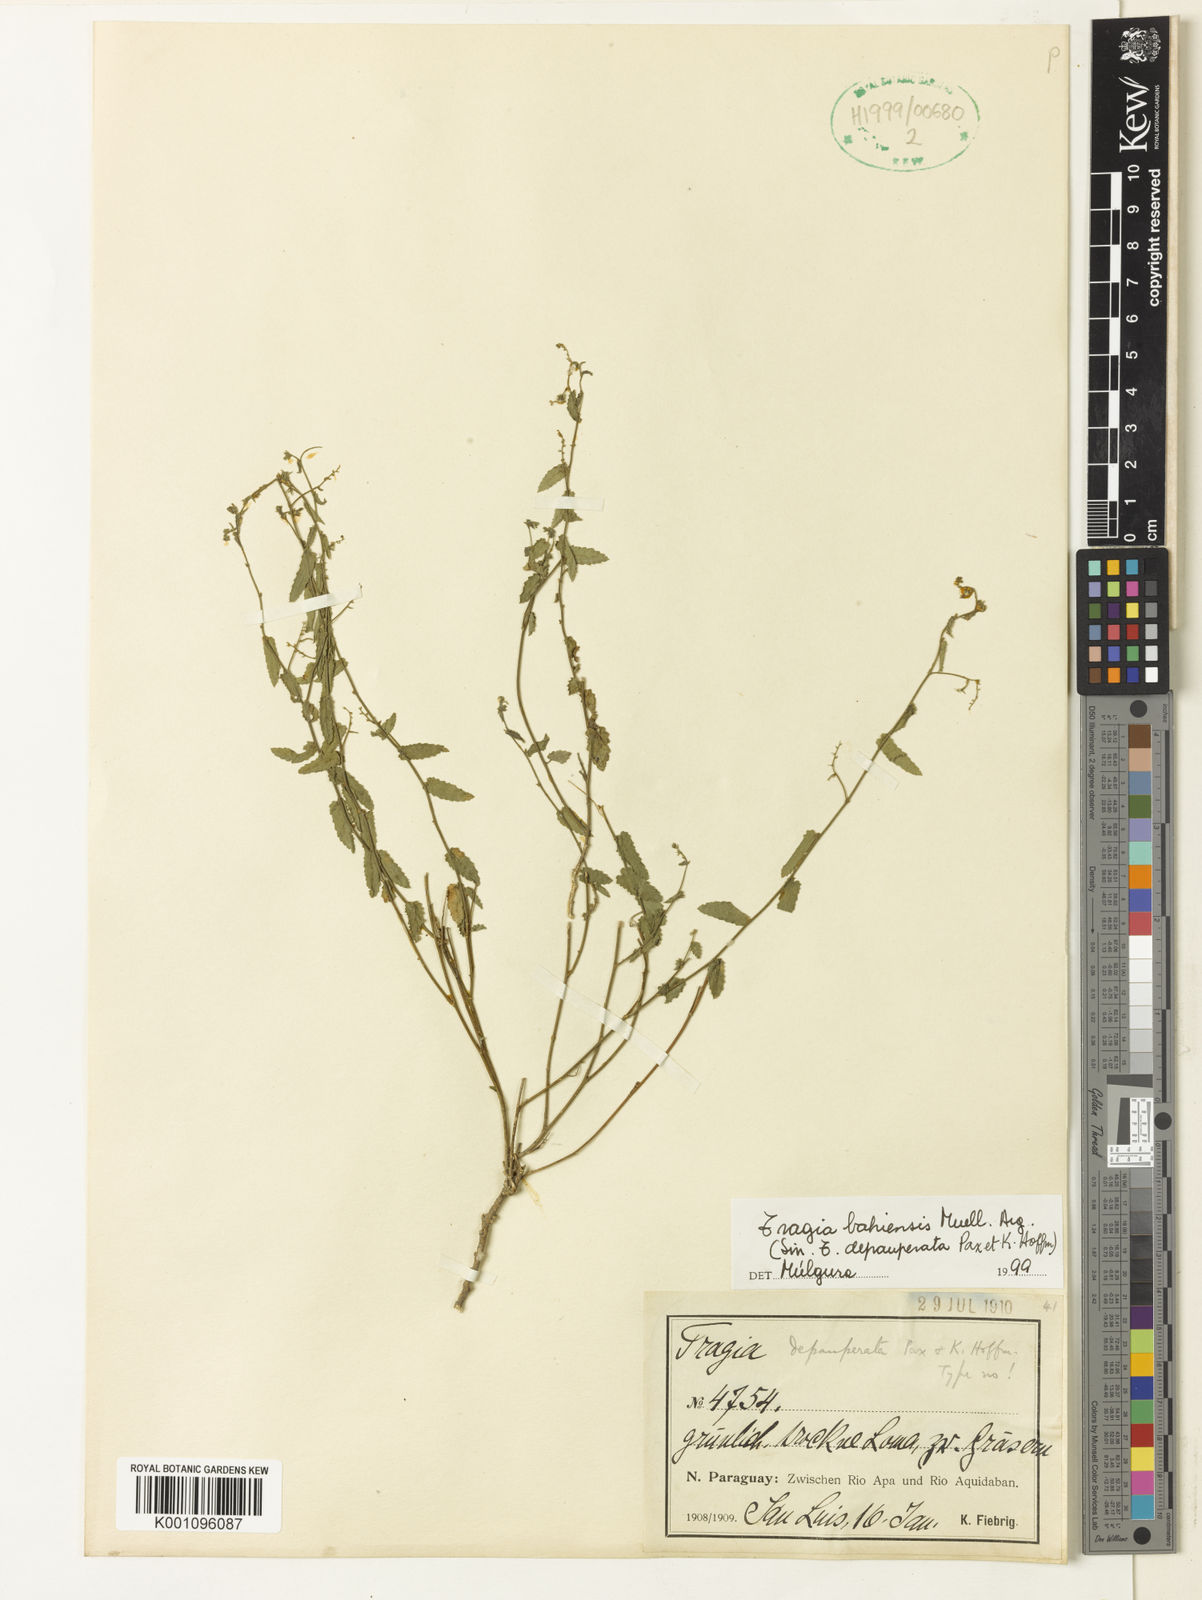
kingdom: Plantae
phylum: Tracheophyta
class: Magnoliopsida
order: Malpighiales
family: Euphorbiaceae
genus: Tragia
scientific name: Tragia
